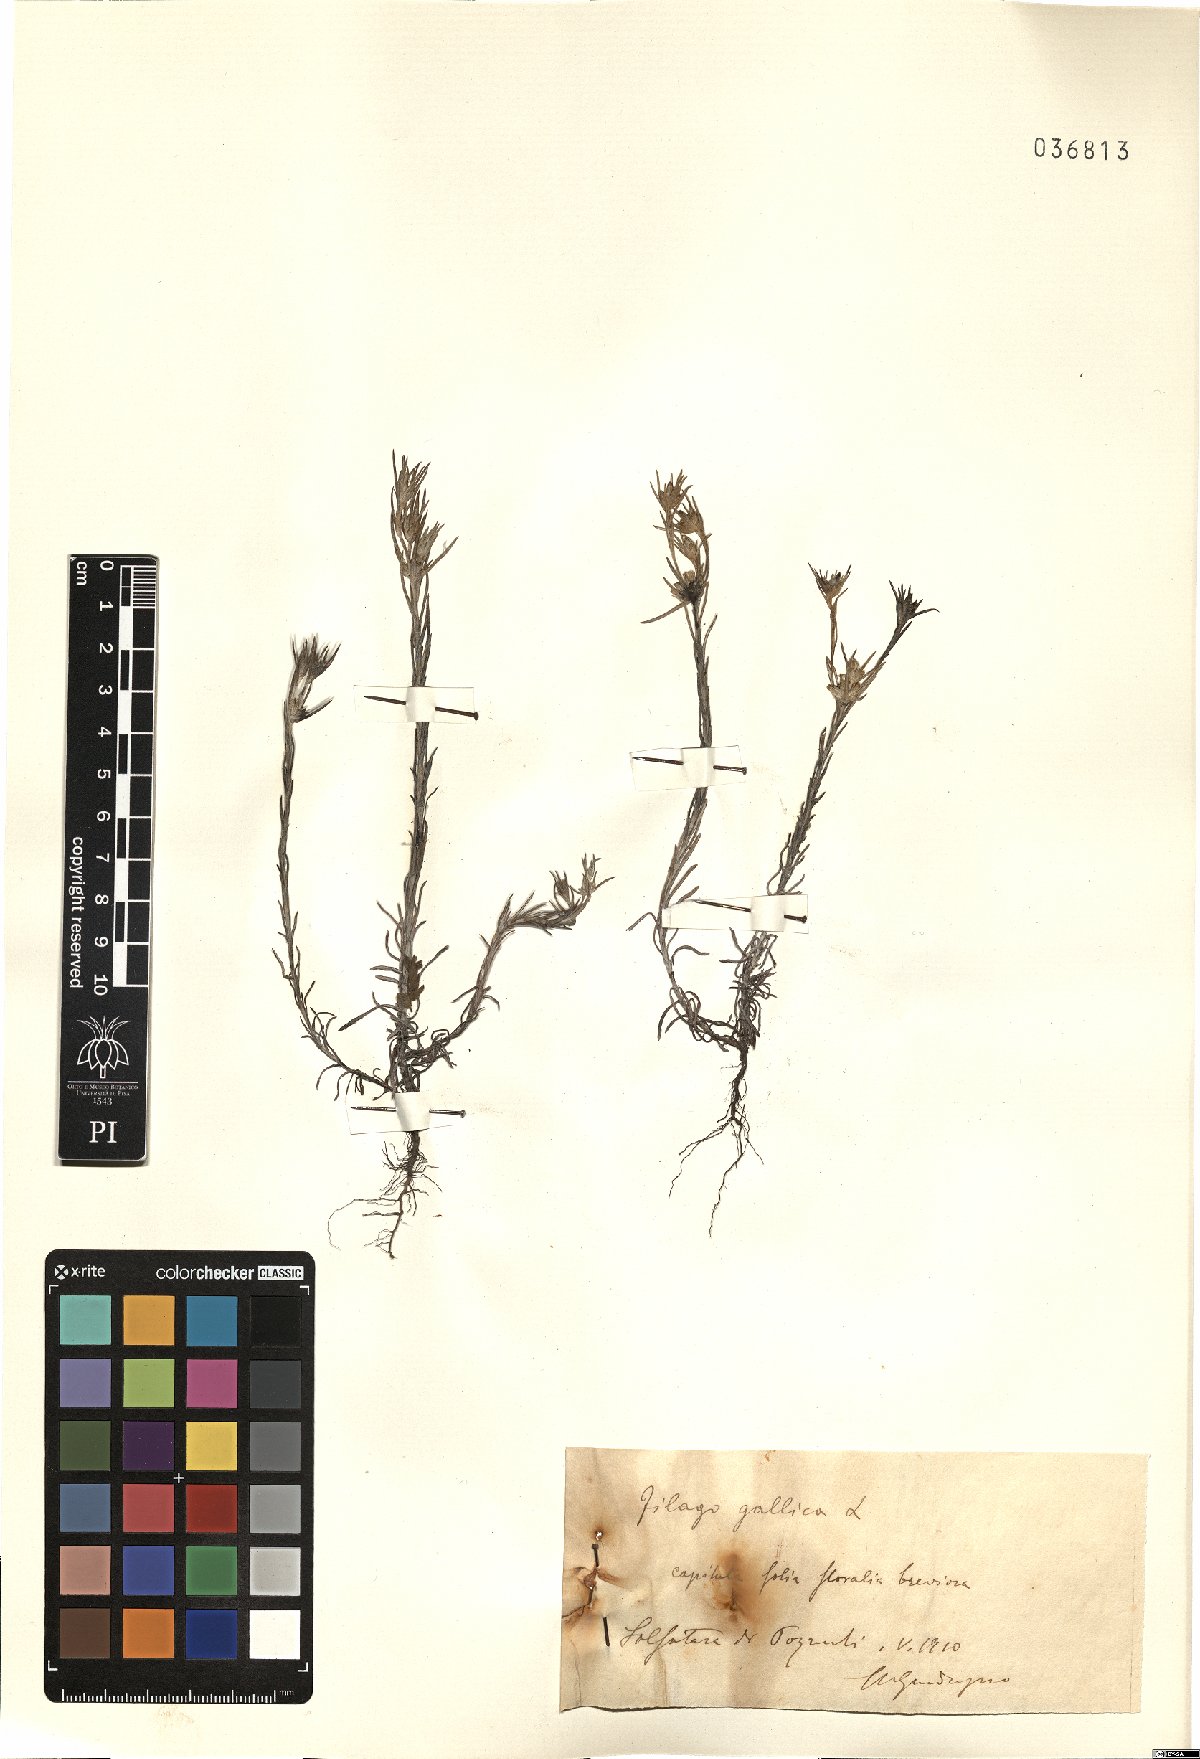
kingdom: Plantae
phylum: Tracheophyta
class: Magnoliopsida
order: Asterales
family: Asteraceae
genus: Logfia
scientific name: Logfia gallica
